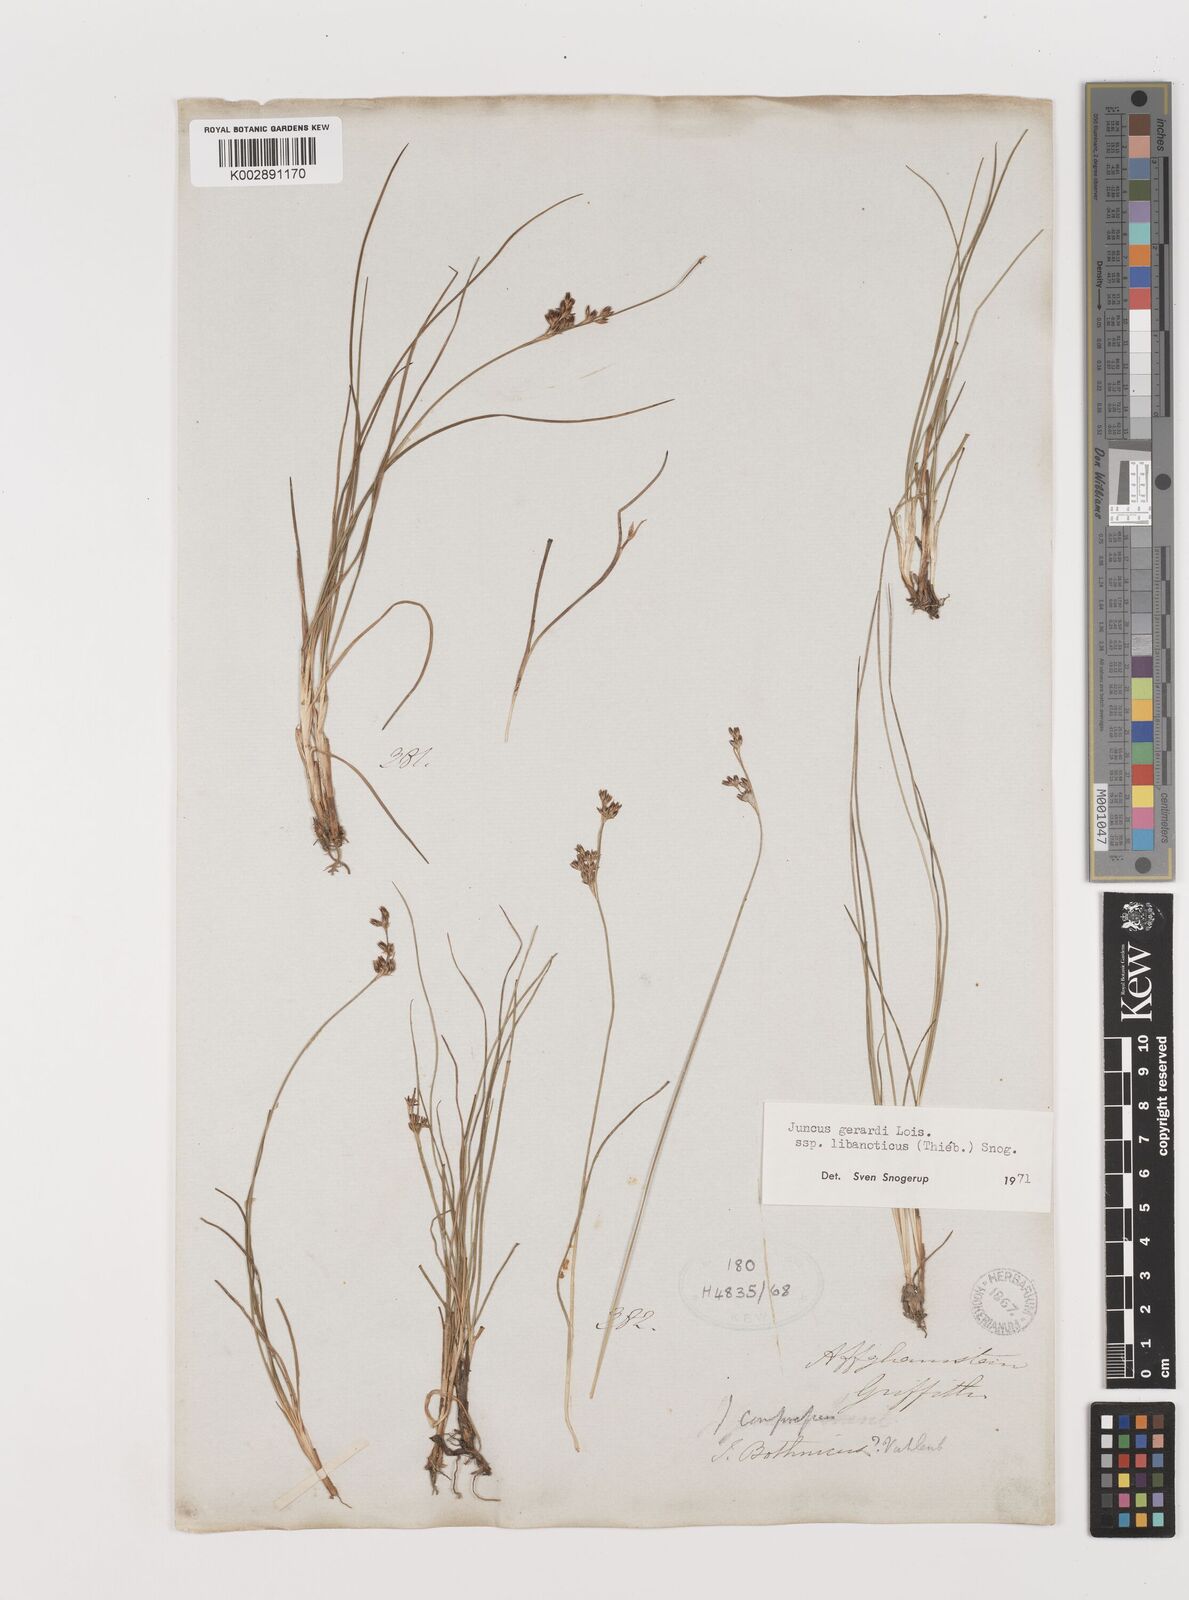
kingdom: Plantae
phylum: Tracheophyta
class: Liliopsida
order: Poales
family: Juncaceae
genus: Juncus
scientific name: Juncus persicus
